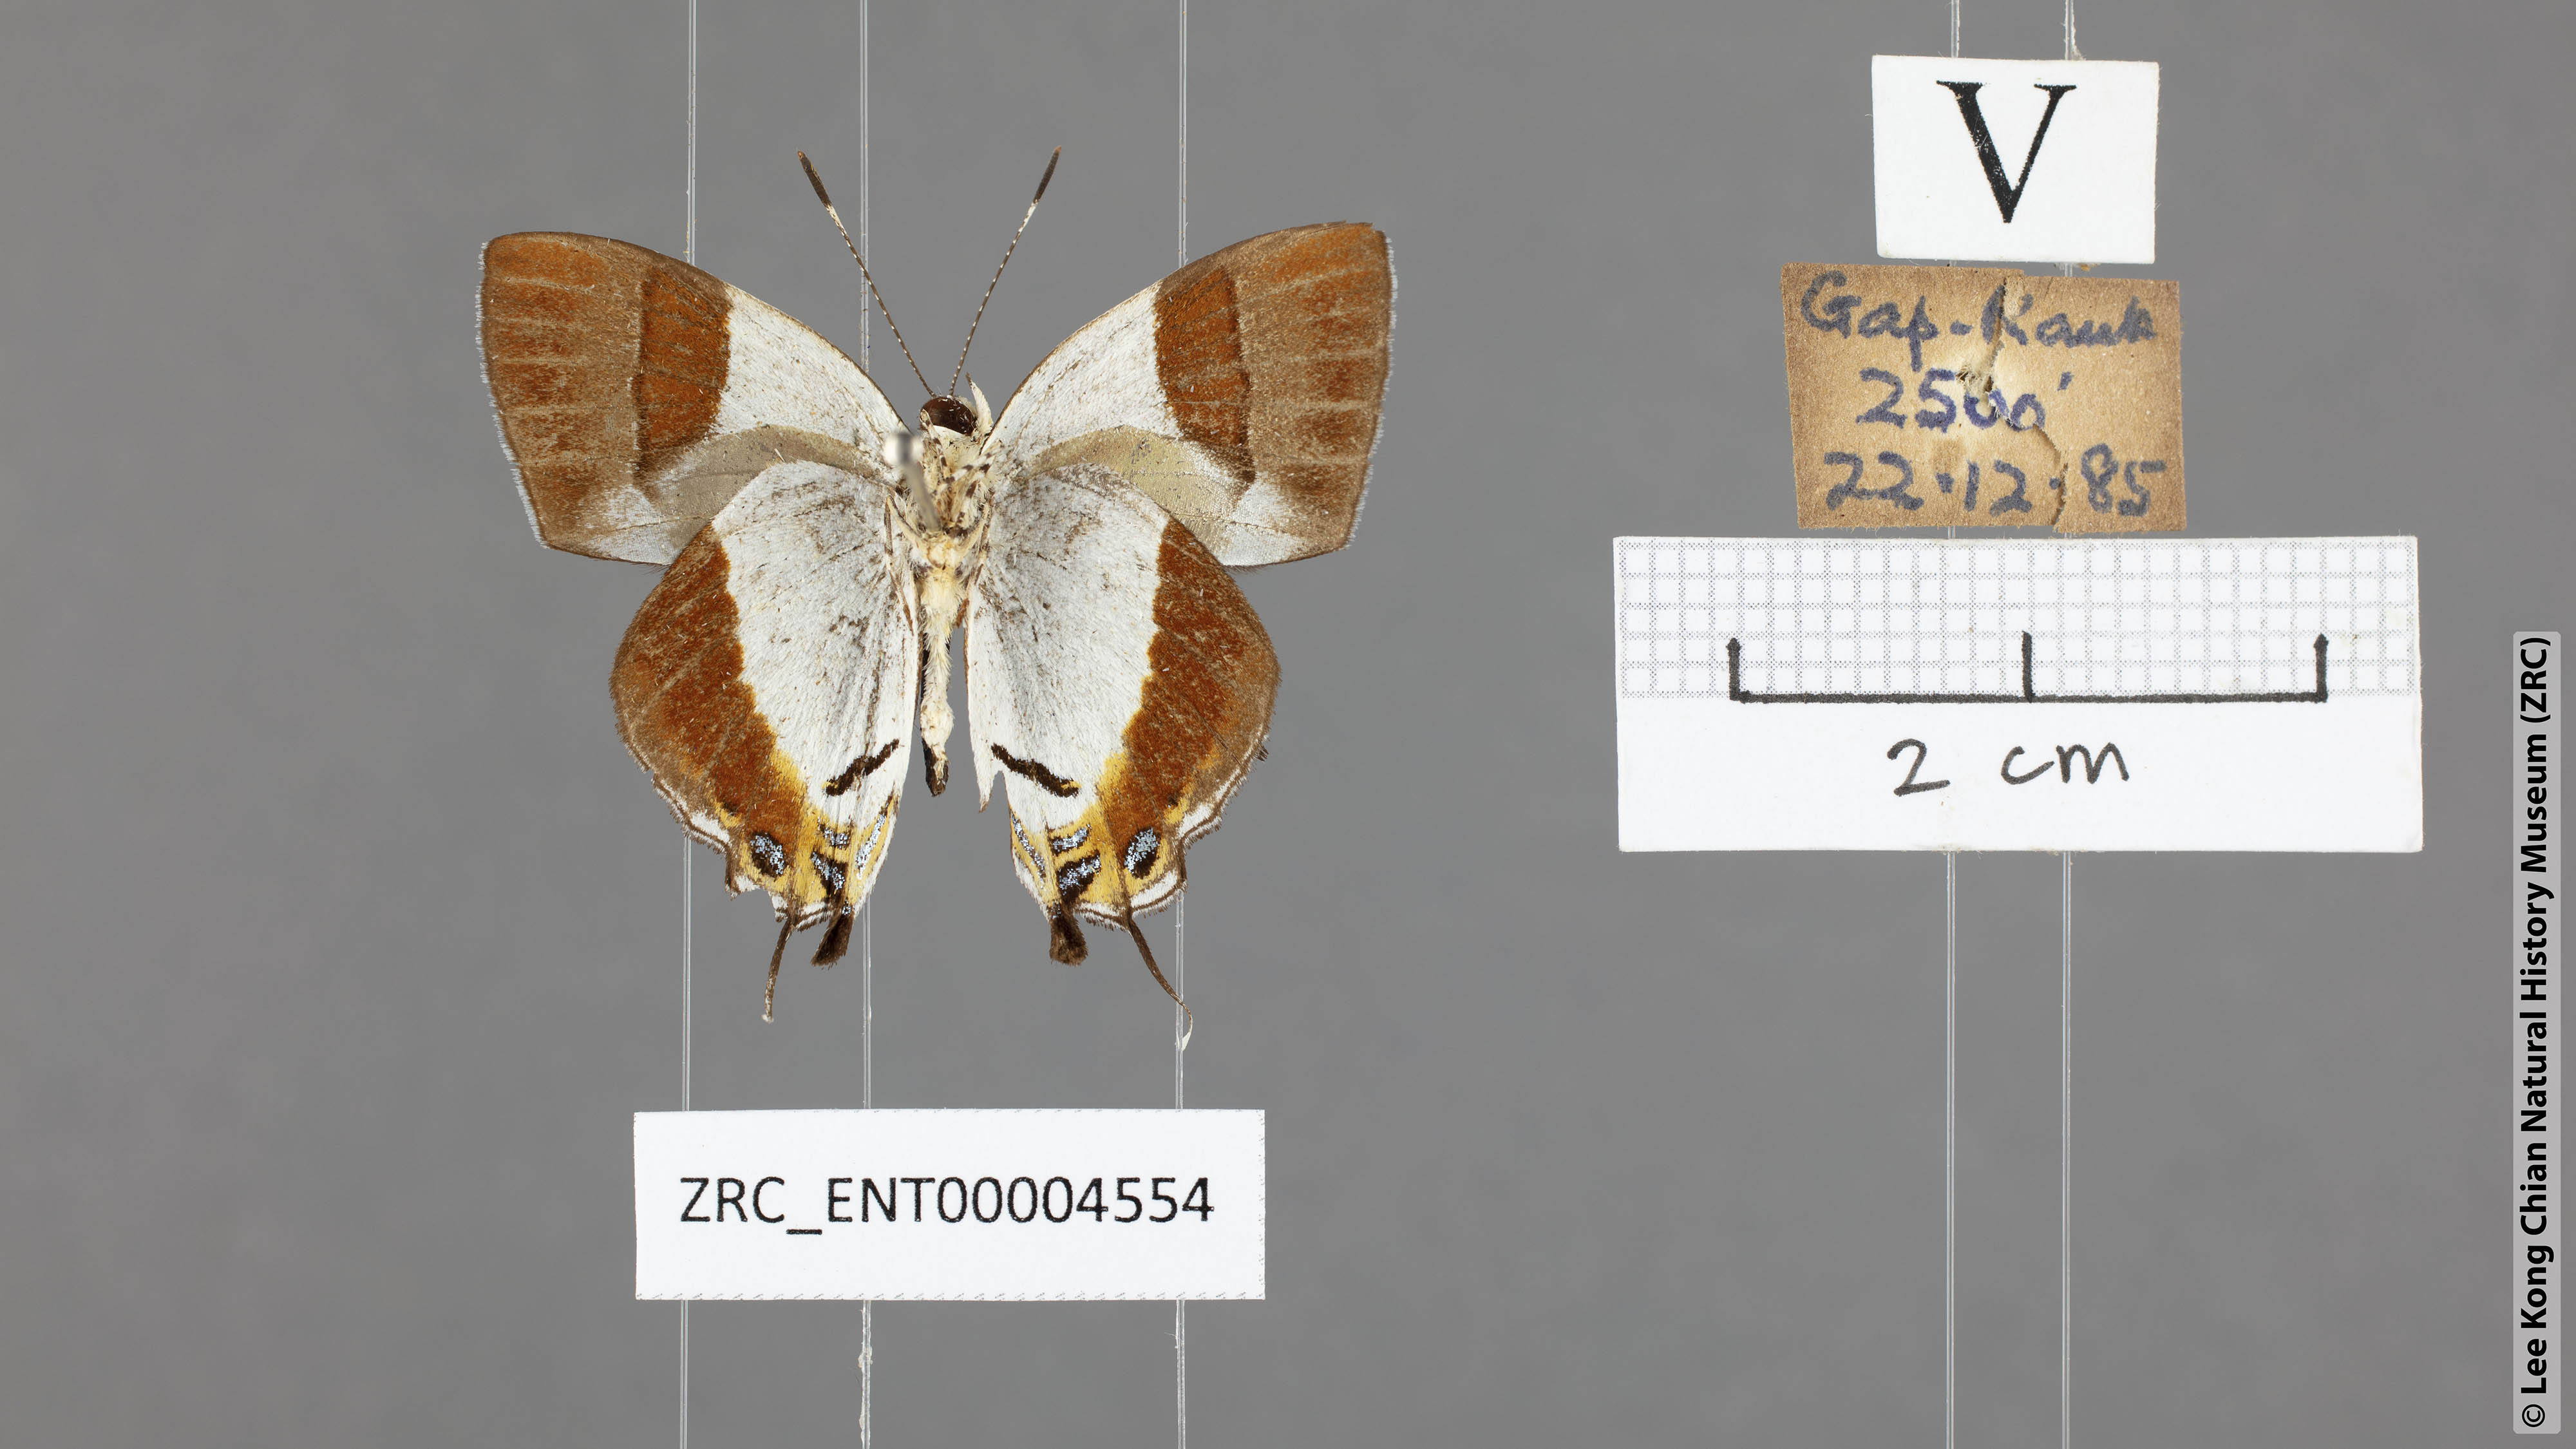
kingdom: Animalia
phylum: Arthropoda
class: Insecta
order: Lepidoptera
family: Lycaenidae
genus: Sithon
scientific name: Sithon nedymond
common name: Plush
